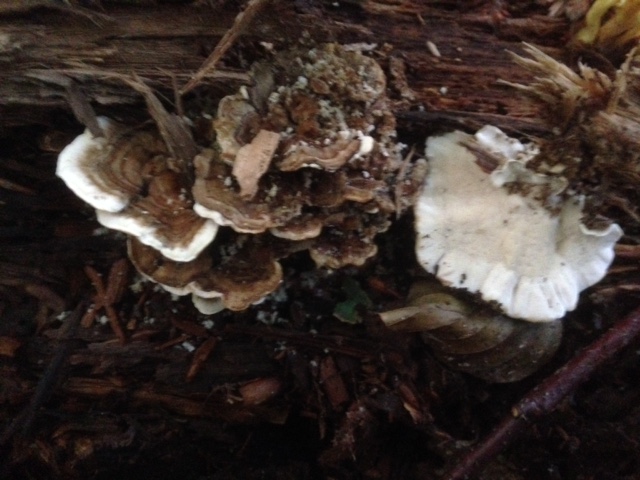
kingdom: Fungi
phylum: Basidiomycota
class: Agaricomycetes
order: Polyporales
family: Polyporaceae
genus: Trametes
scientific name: Trametes versicolor
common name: broget læderporesvamp
